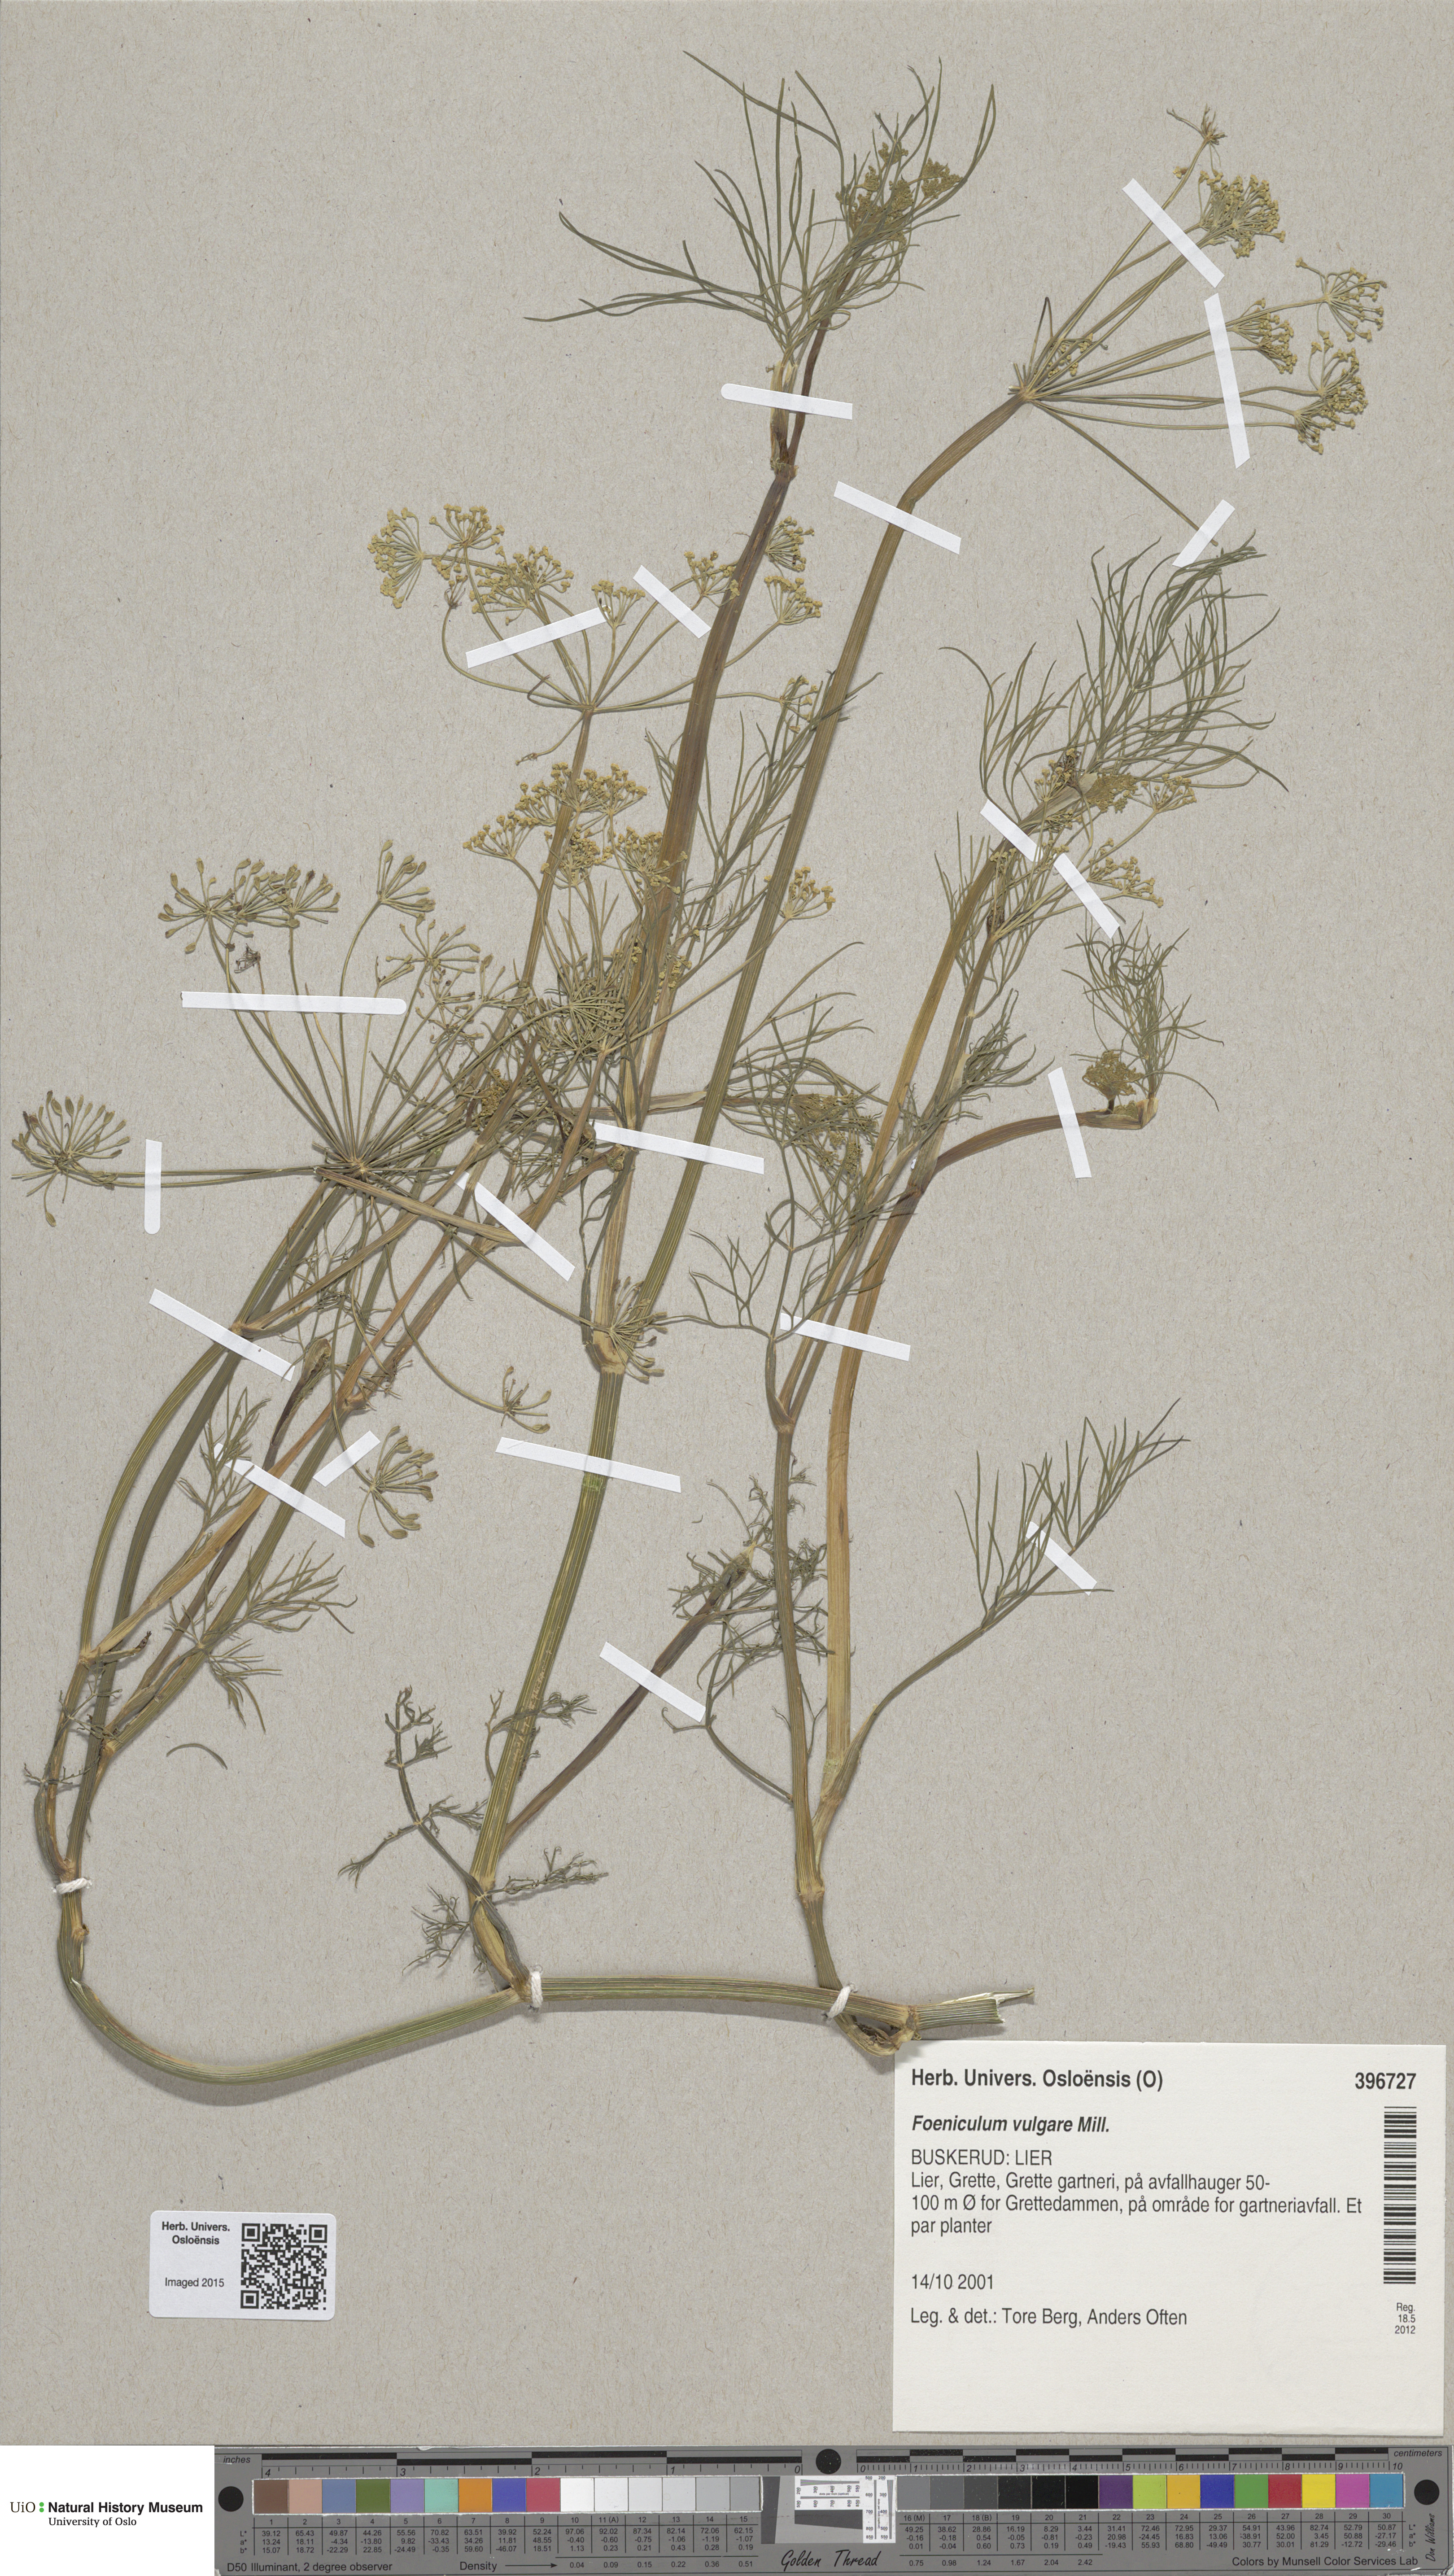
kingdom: Plantae
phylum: Tracheophyta
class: Magnoliopsida
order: Apiales
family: Apiaceae
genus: Foeniculum
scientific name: Foeniculum vulgare
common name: Fennel
